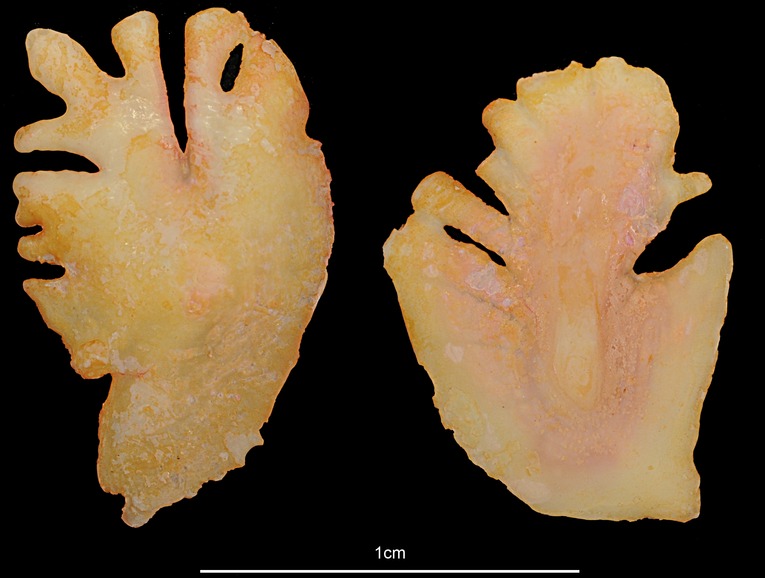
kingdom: Animalia
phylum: Chordata
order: Pleuronectiformes
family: Pleuronectidae
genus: Reinhardtius
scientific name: Reinhardtius hippoglossoides
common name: Greenland halibut
